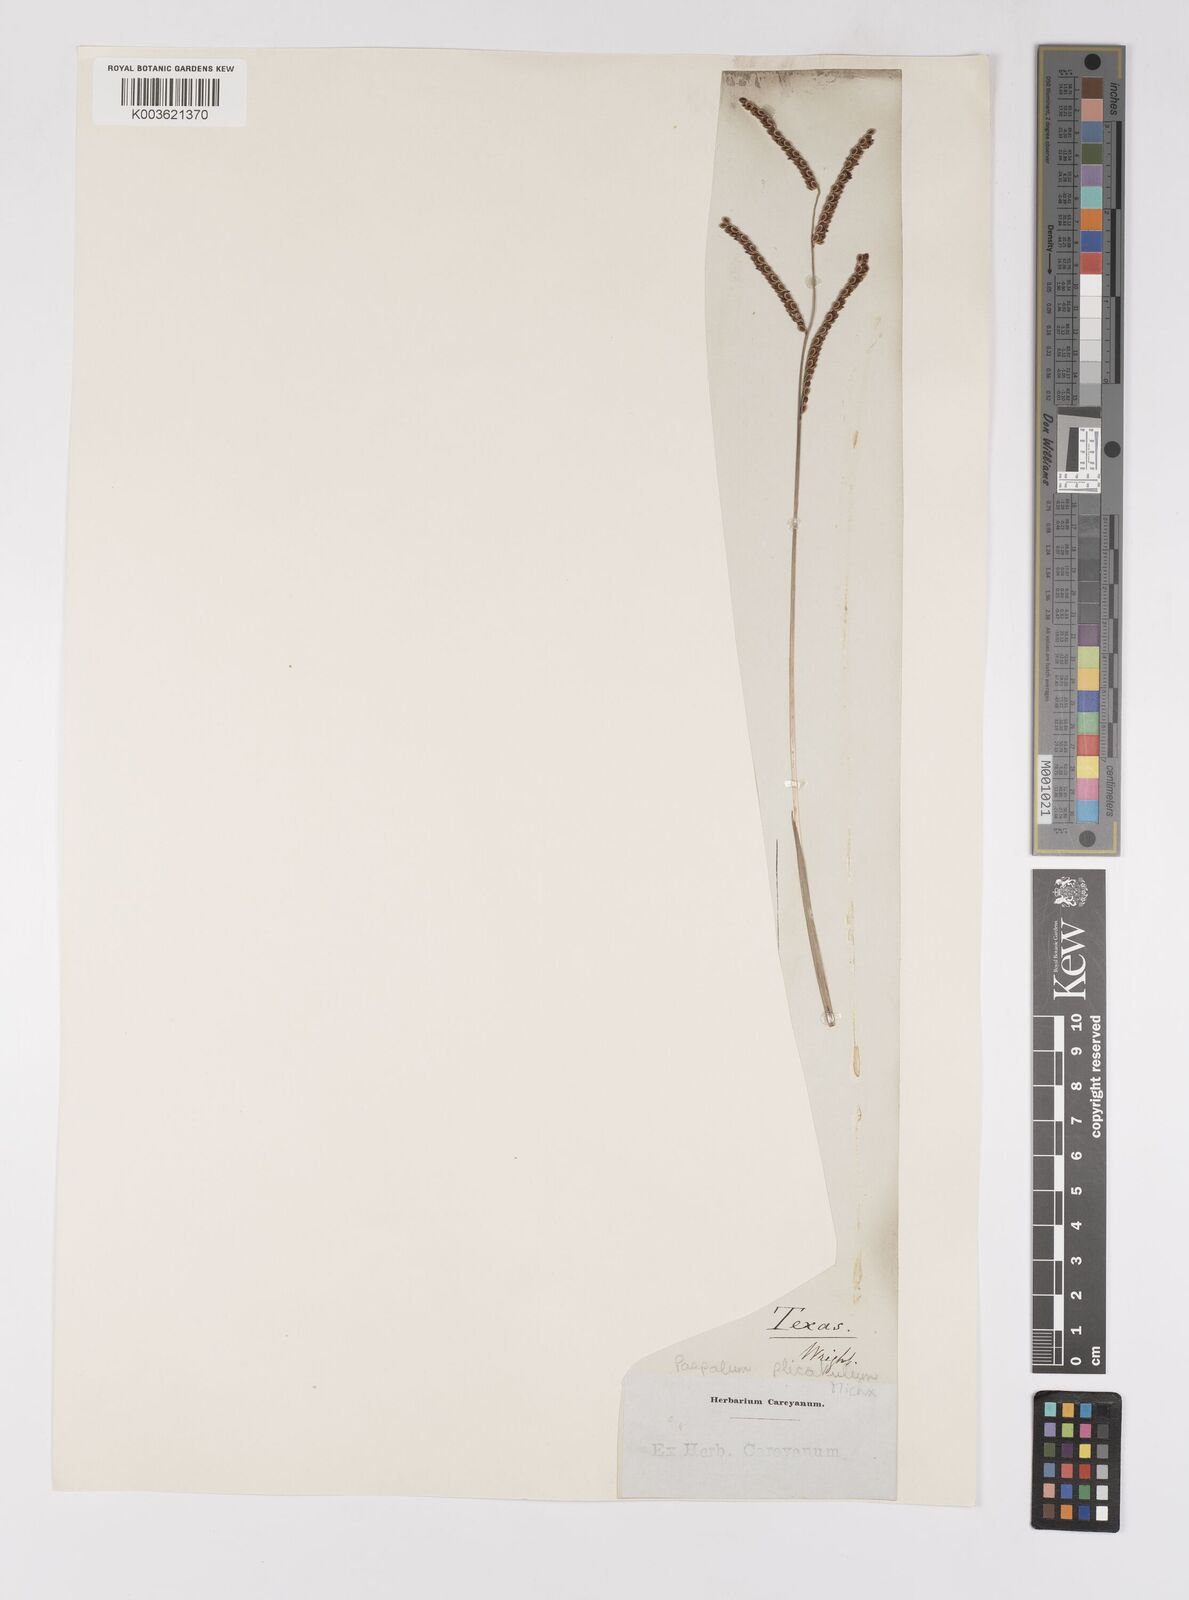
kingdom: Plantae
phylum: Tracheophyta
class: Liliopsida
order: Poales
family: Poaceae
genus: Paspalum
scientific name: Paspalum plicatulum
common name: Top paspalum
